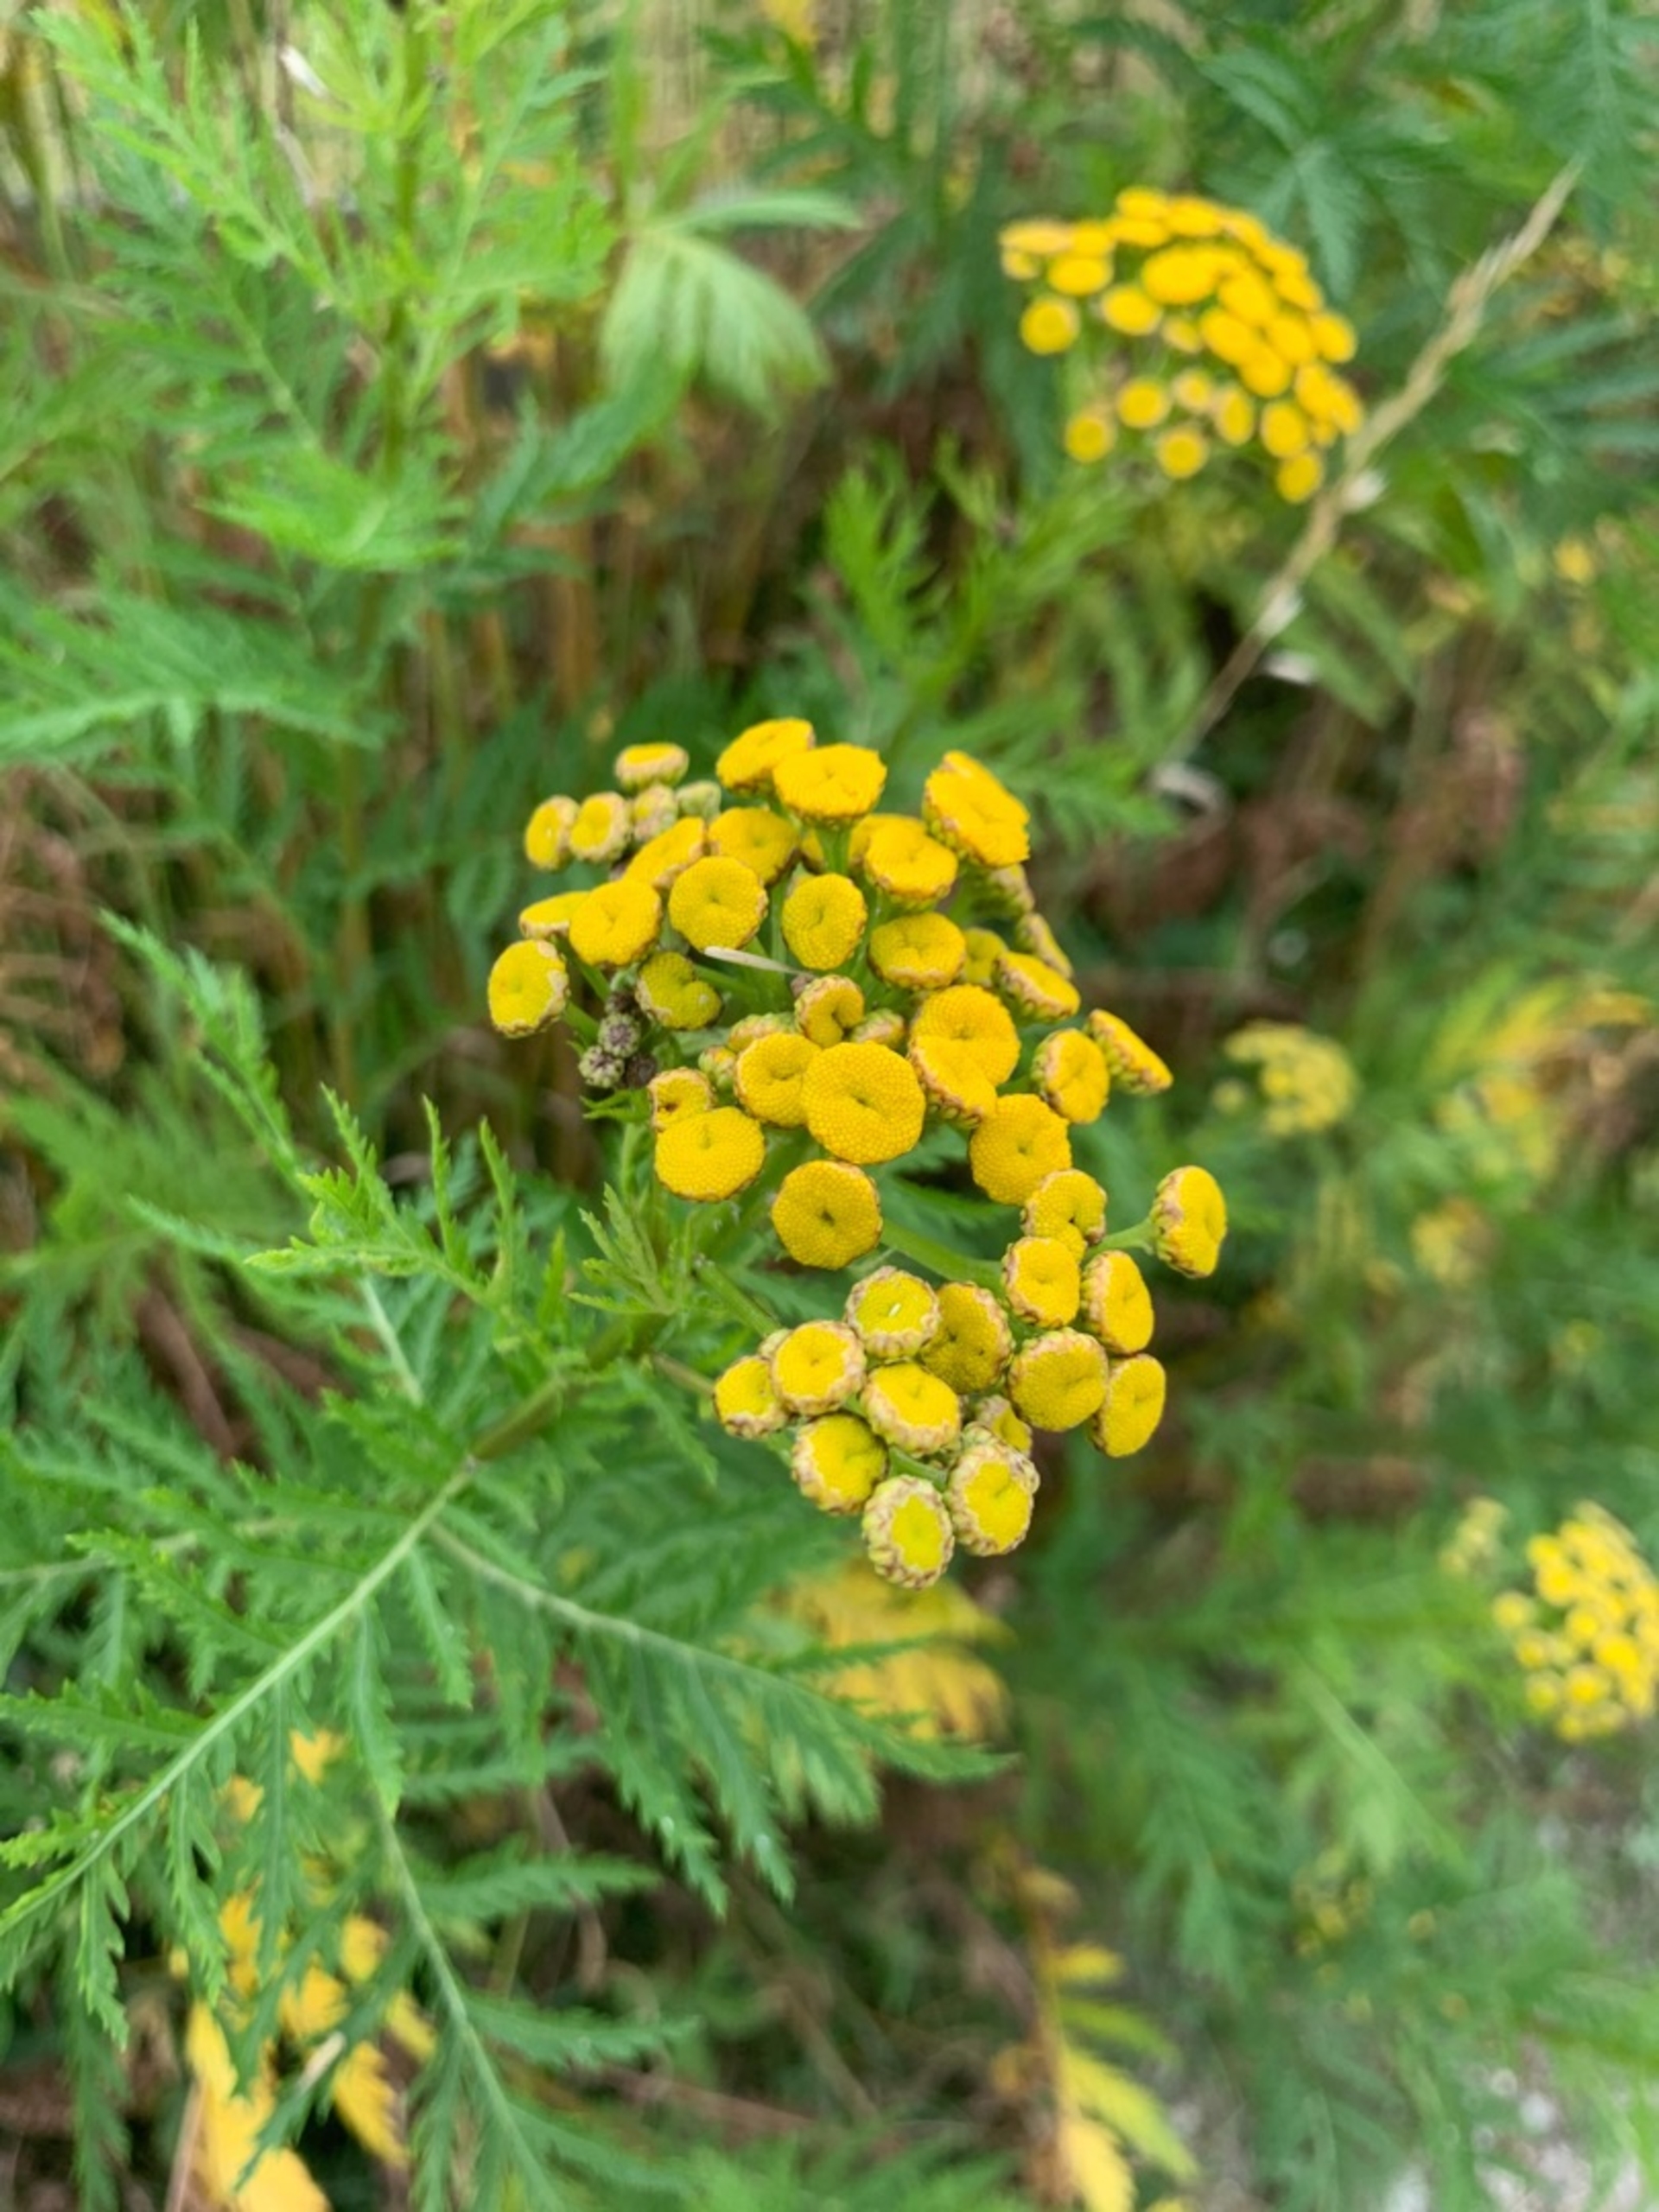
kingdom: Plantae
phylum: Tracheophyta
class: Magnoliopsida
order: Asterales
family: Asteraceae
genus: Tanacetum
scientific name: Tanacetum vulgare
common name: Rejnfan
